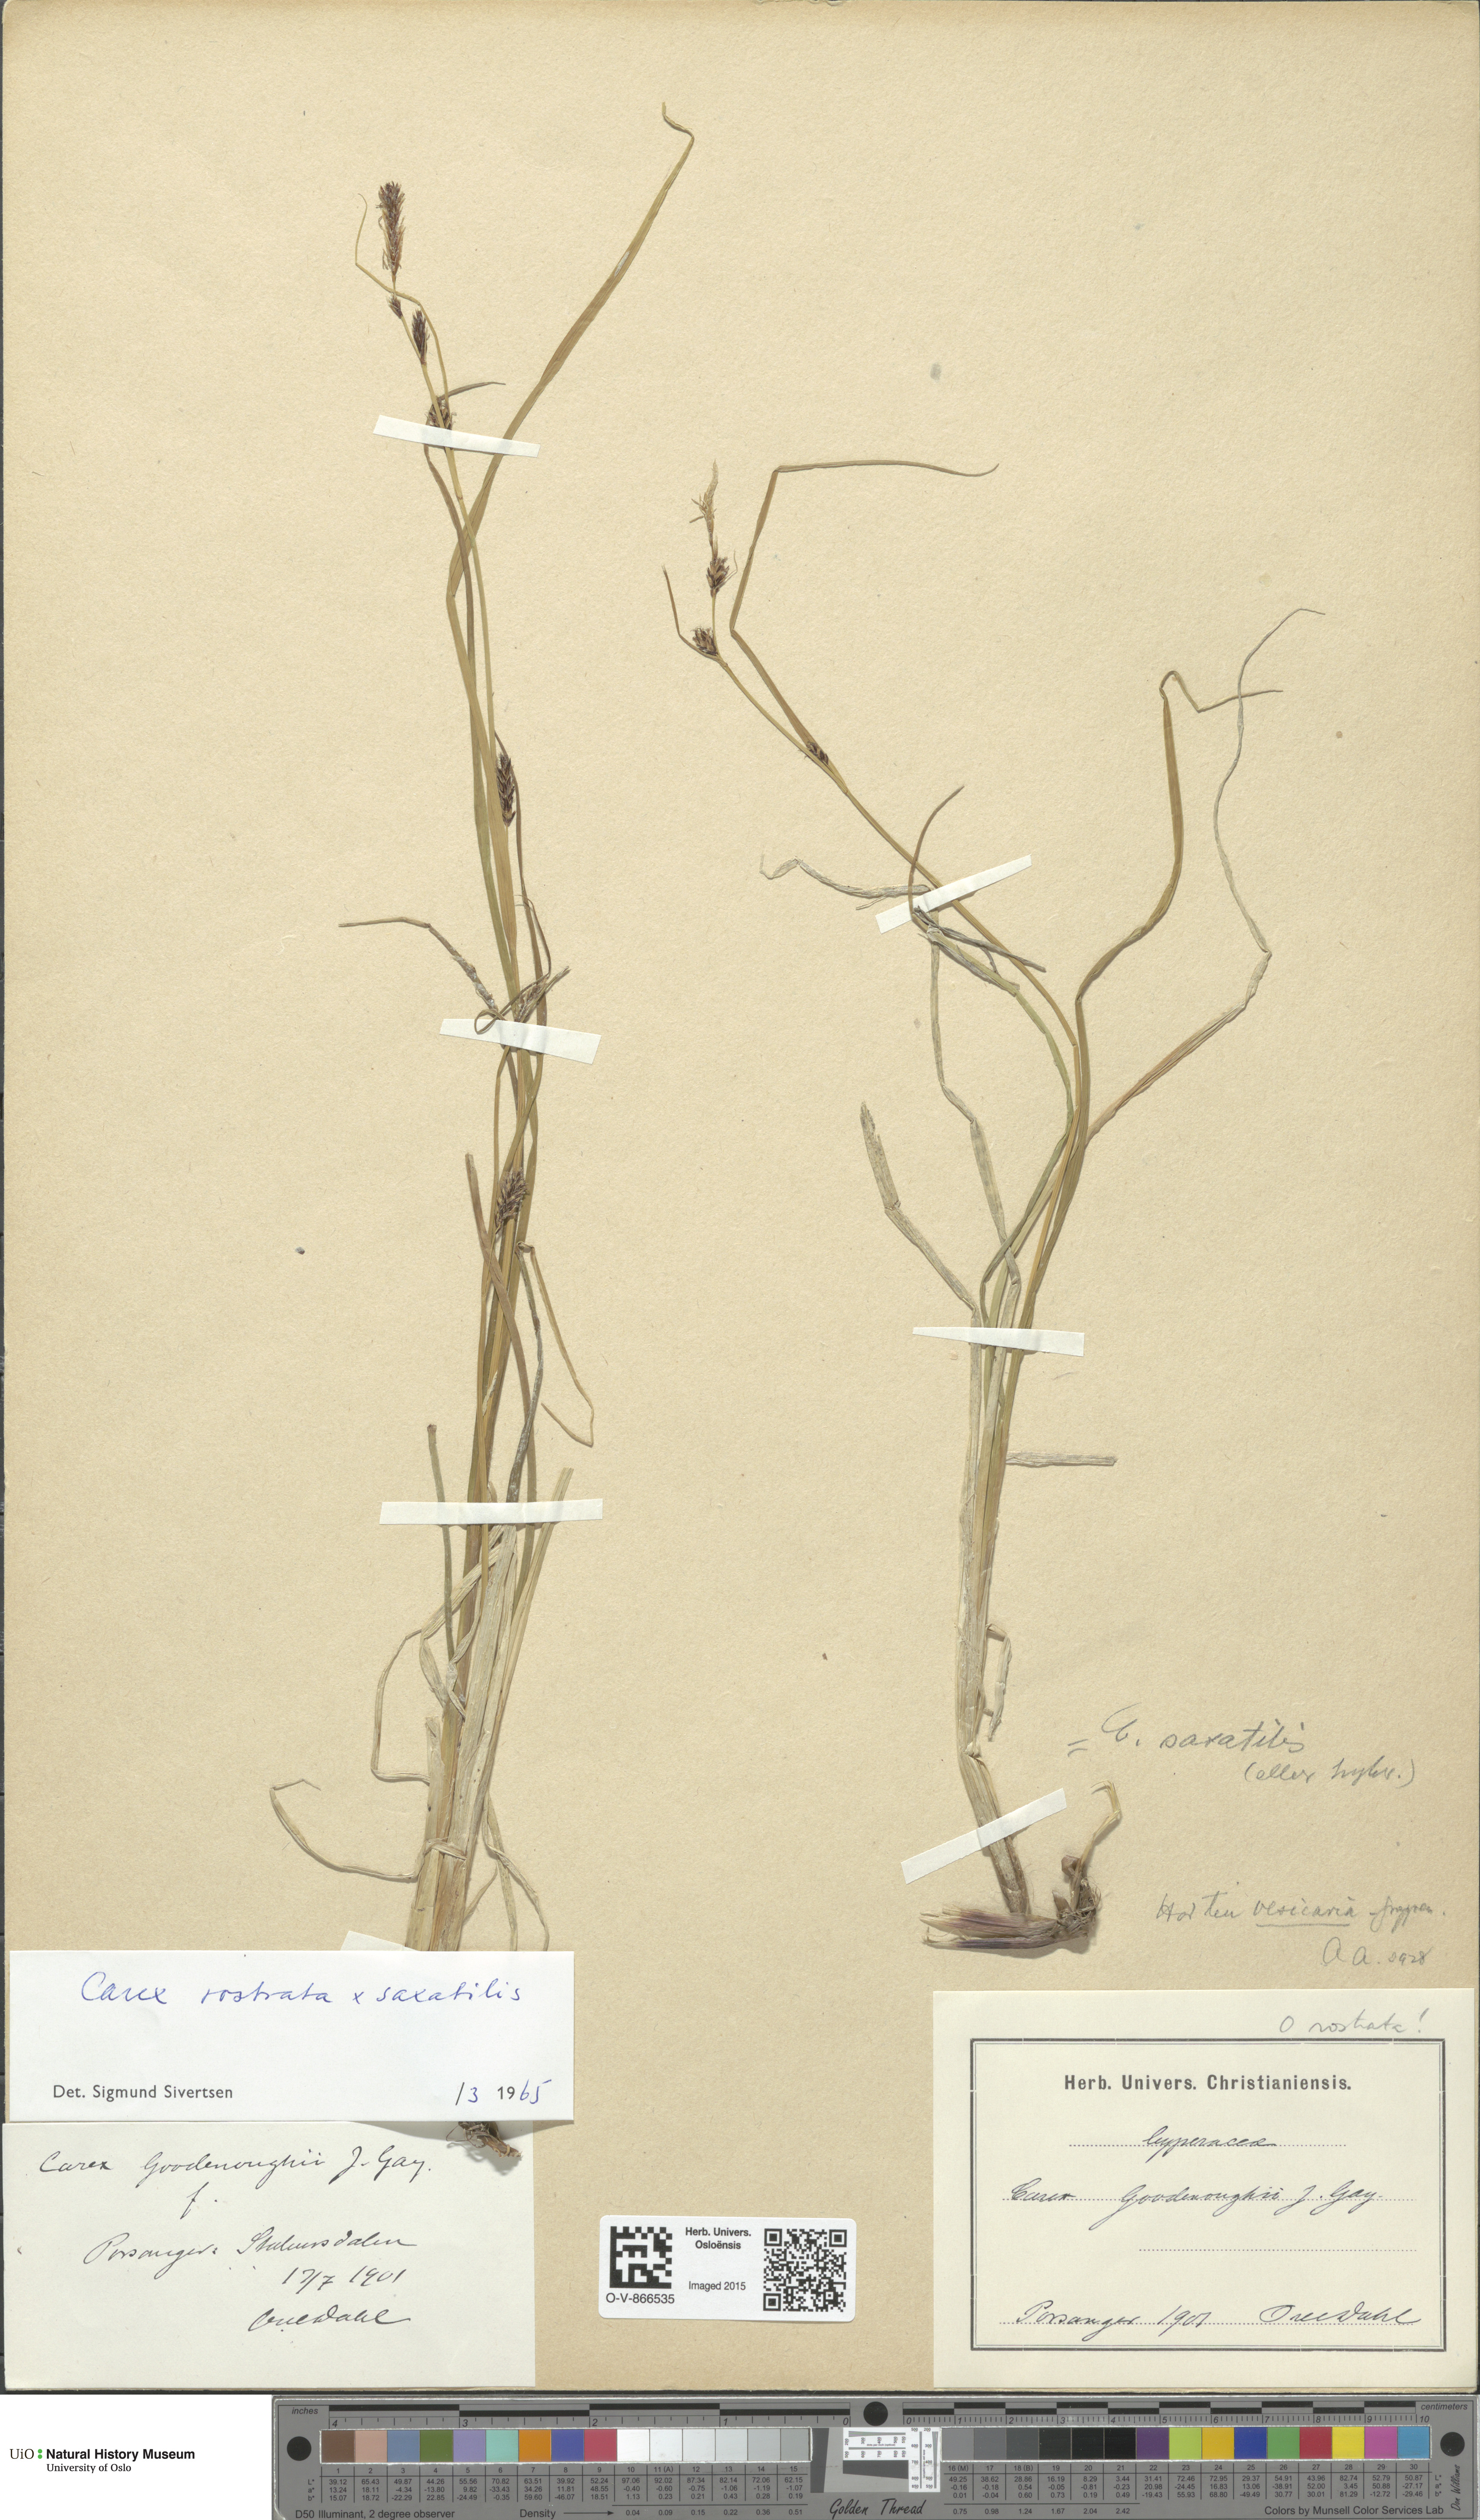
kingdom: Plantae
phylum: Tracheophyta
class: Liliopsida
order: Poales
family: Cyperaceae
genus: Carex
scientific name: Carex
